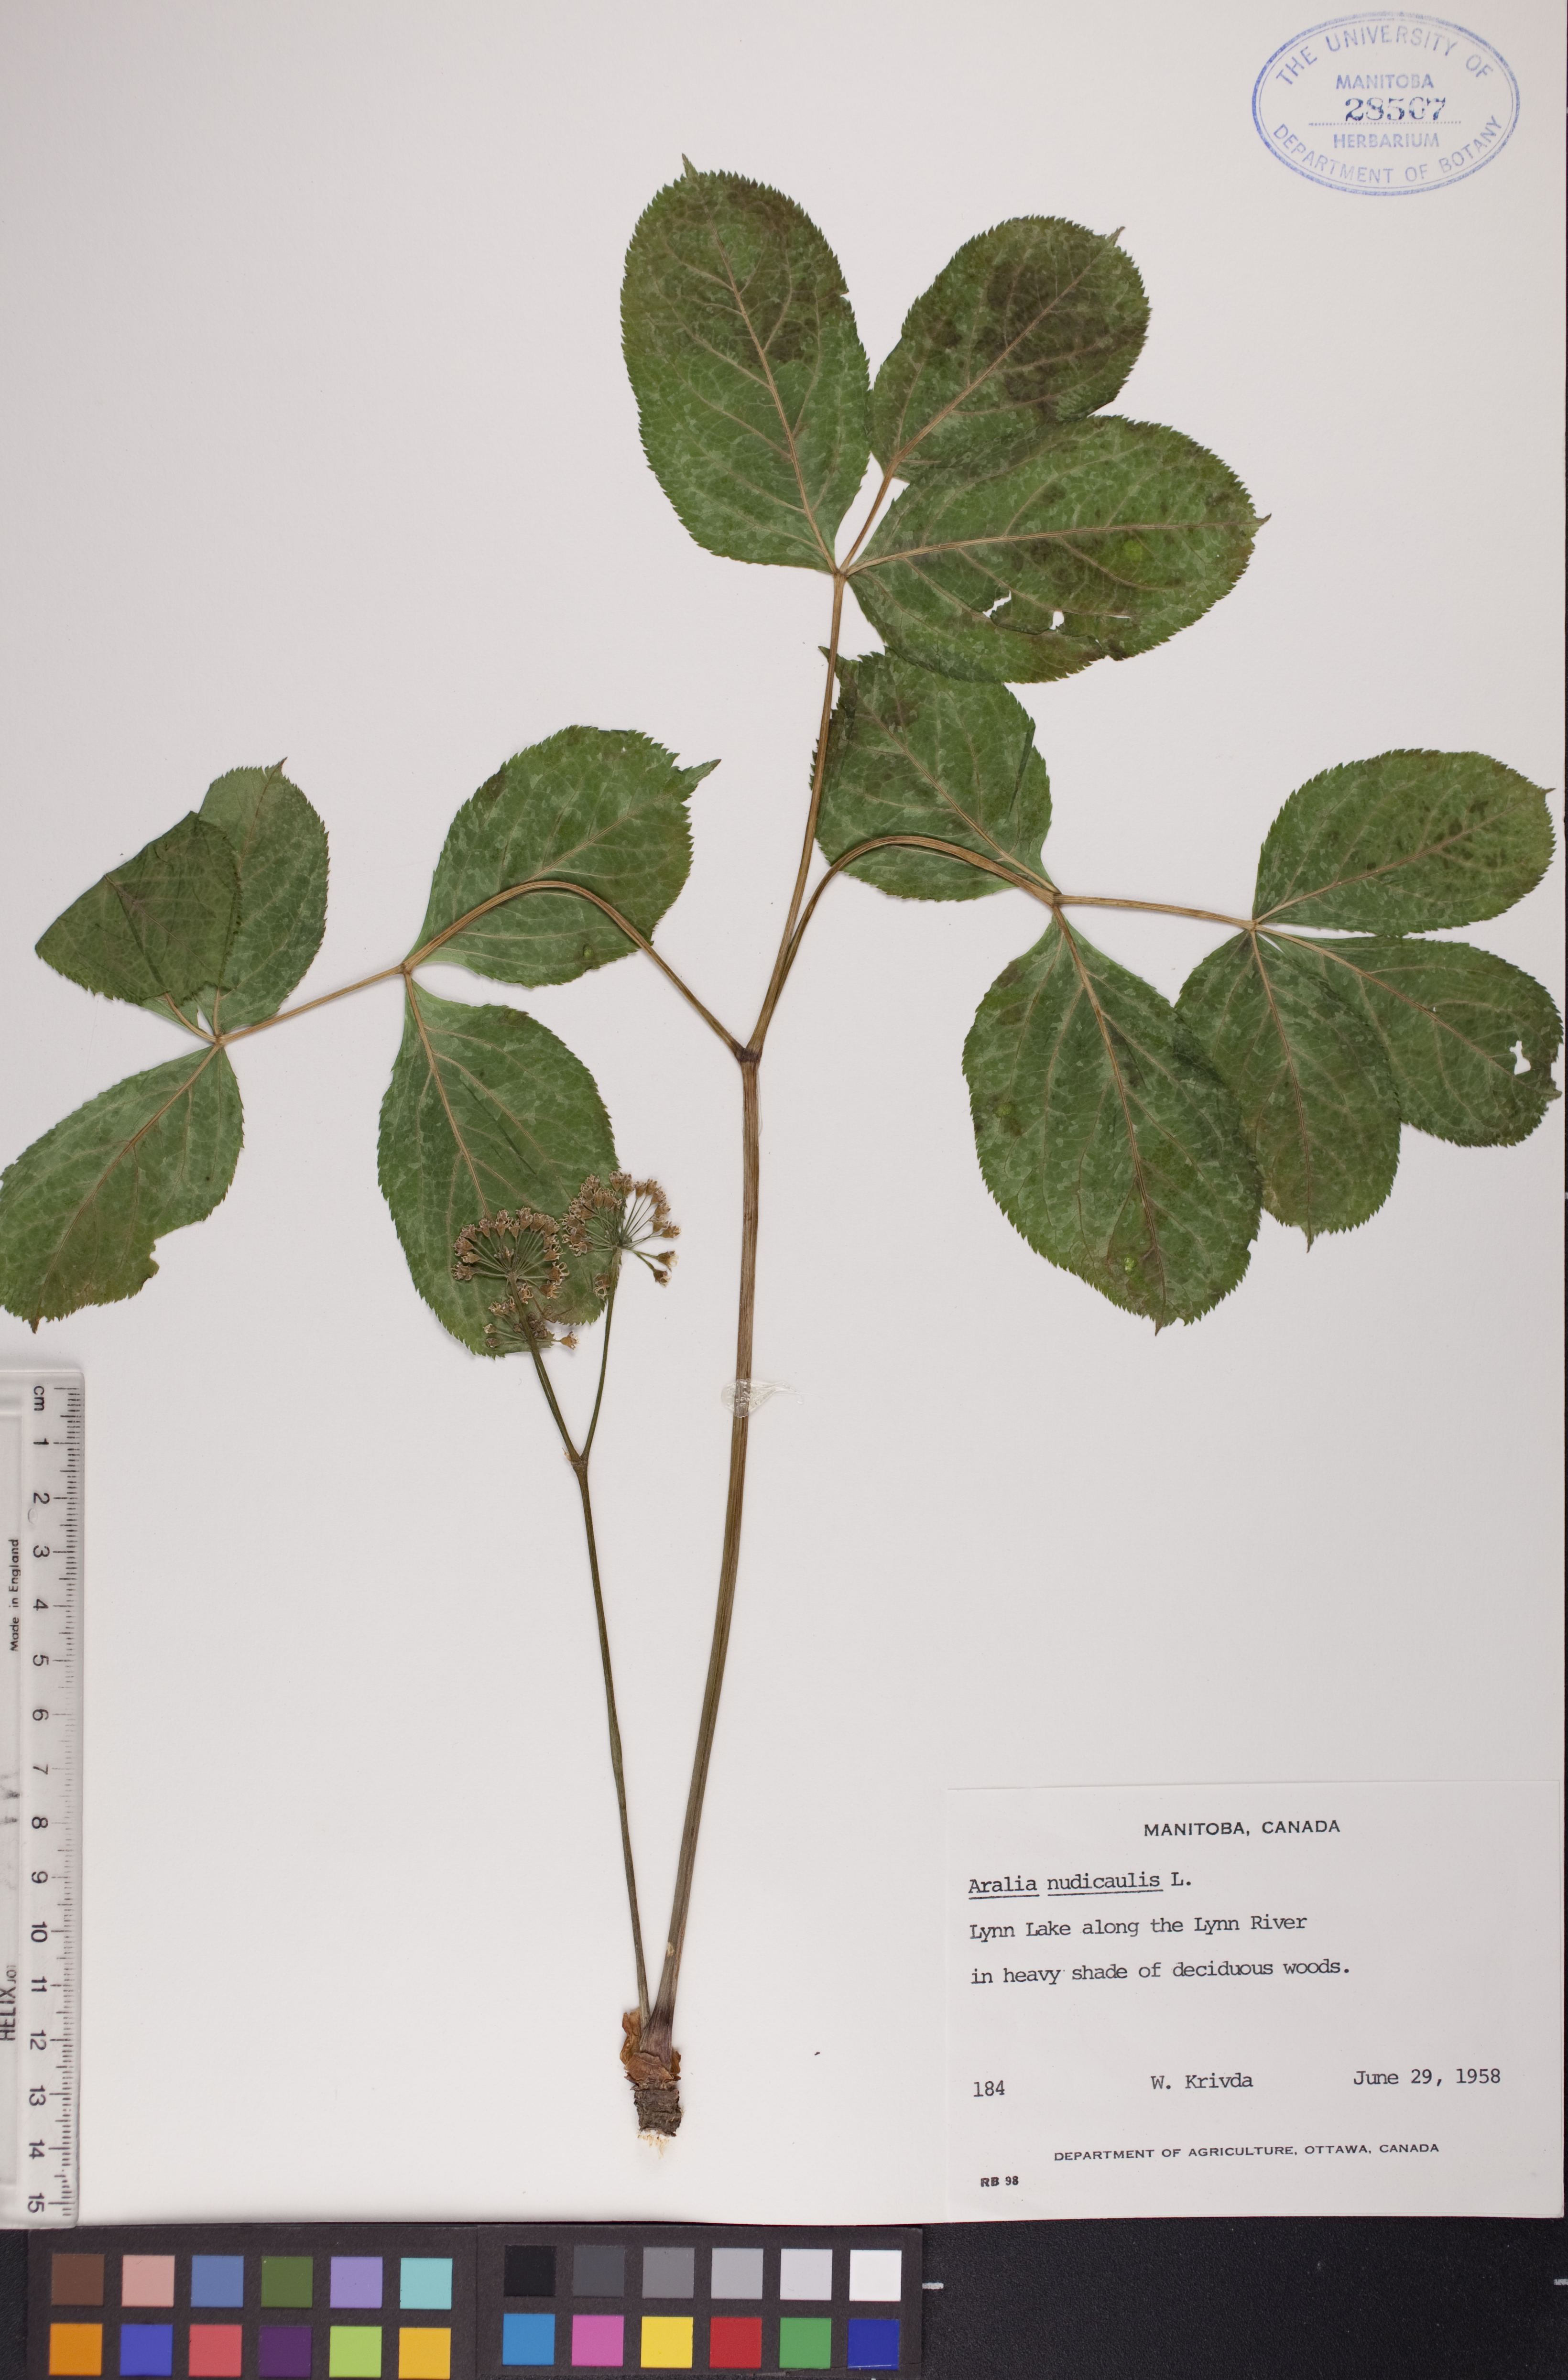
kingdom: Plantae
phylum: Tracheophyta
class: Magnoliopsida
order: Apiales
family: Araliaceae
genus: Aralia
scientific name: Aralia nudicaulis
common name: Wild sarsaparilla
